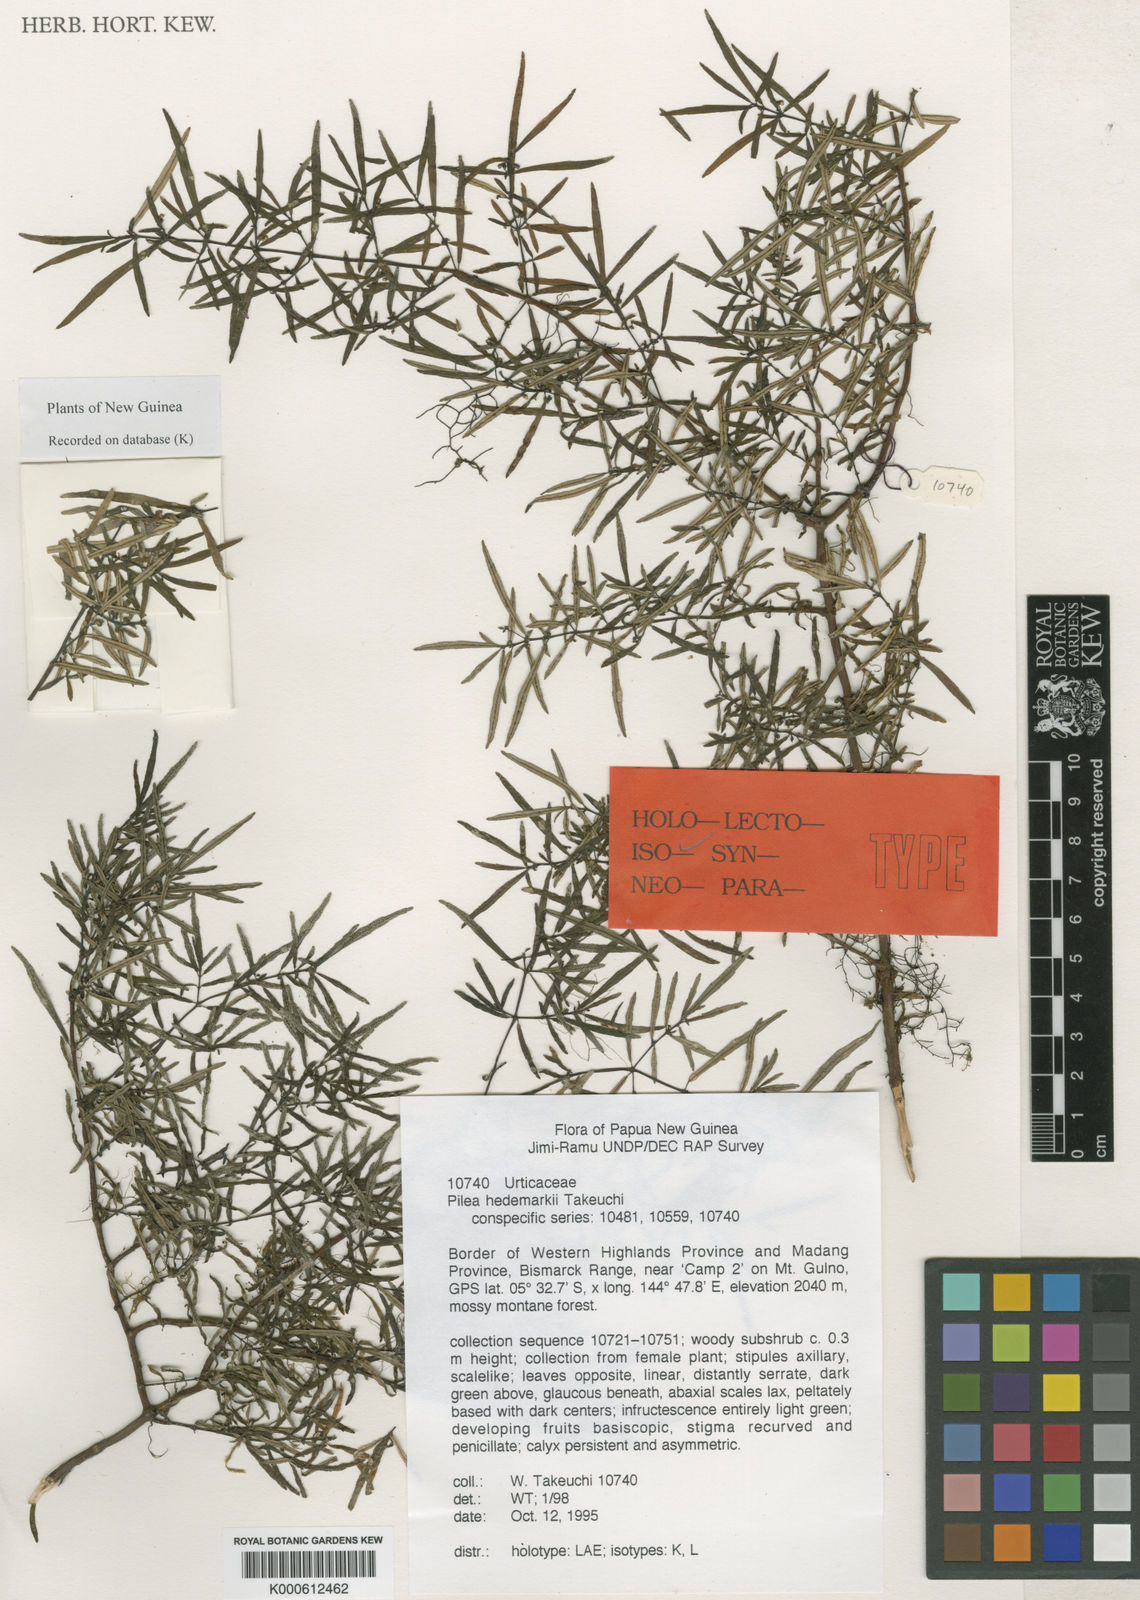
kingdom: Plantae
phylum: Tracheophyta
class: Magnoliopsida
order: Rosales
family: Urticaceae
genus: Pilea
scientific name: Pilea hedemarkii
